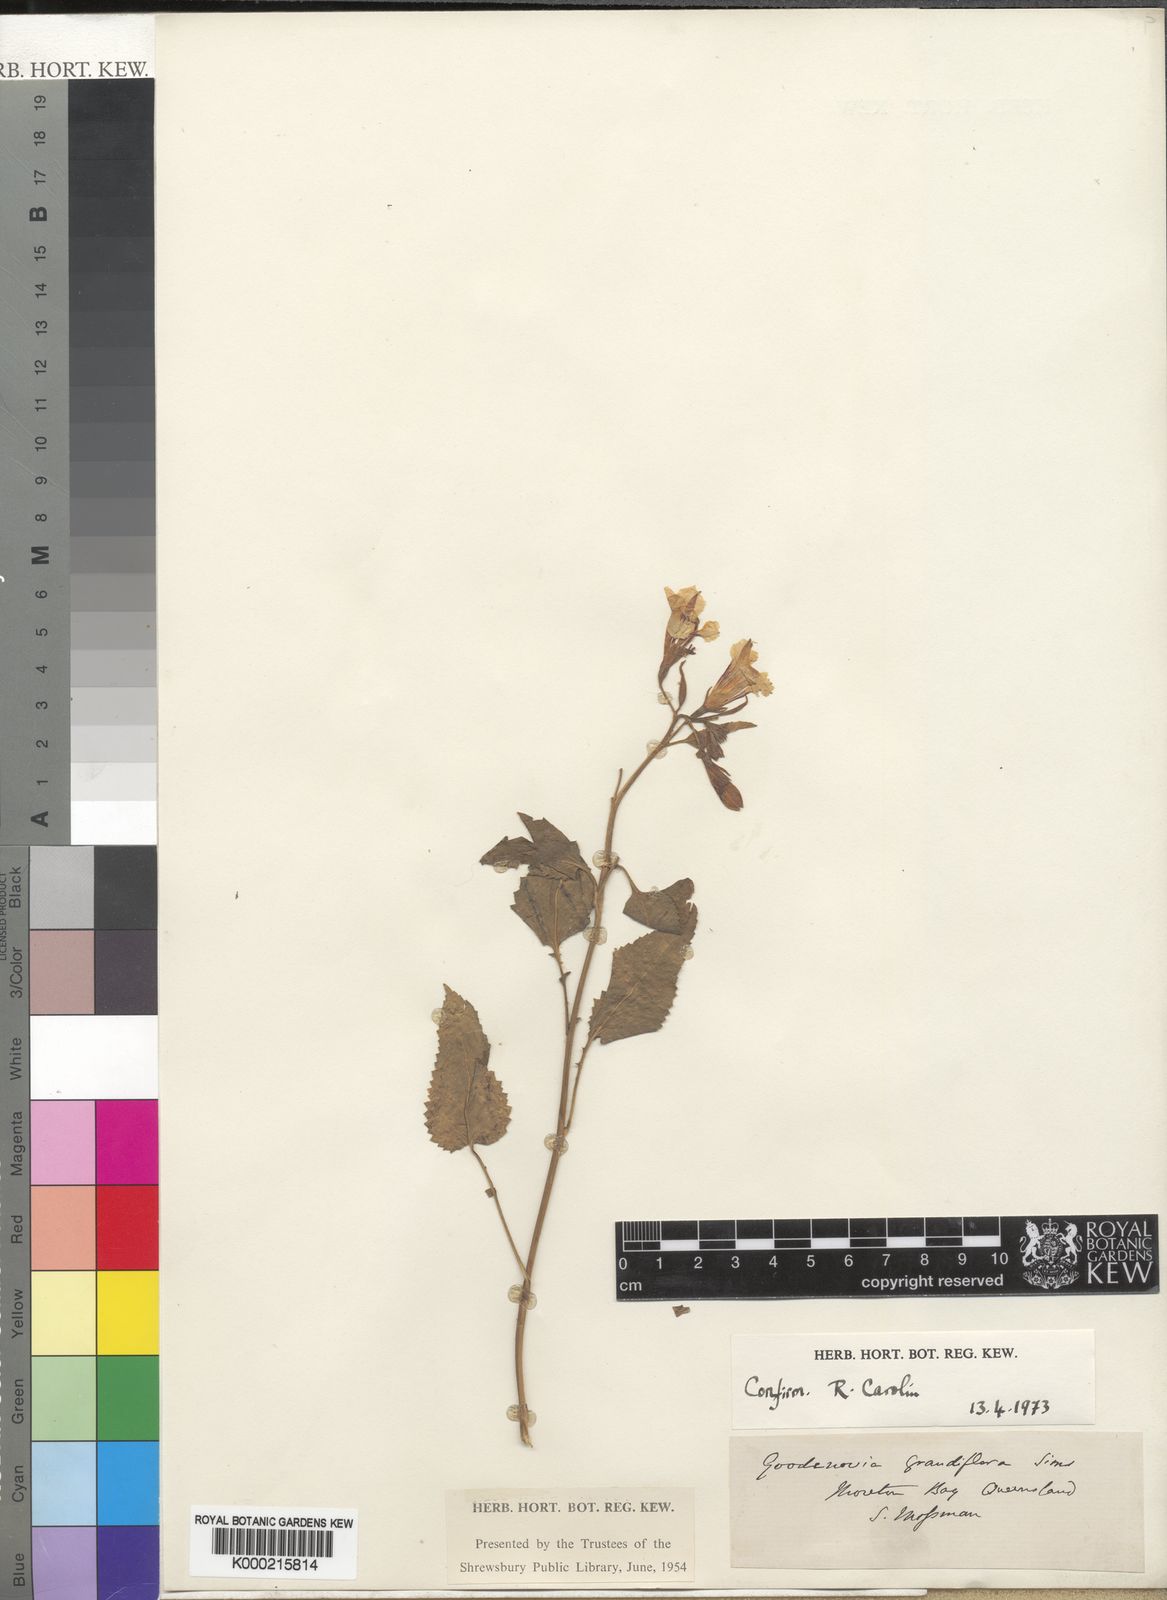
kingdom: Plantae
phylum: Tracheophyta
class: Magnoliopsida
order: Asterales
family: Goodeniaceae
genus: Goodenia
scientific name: Goodenia grandiflora
